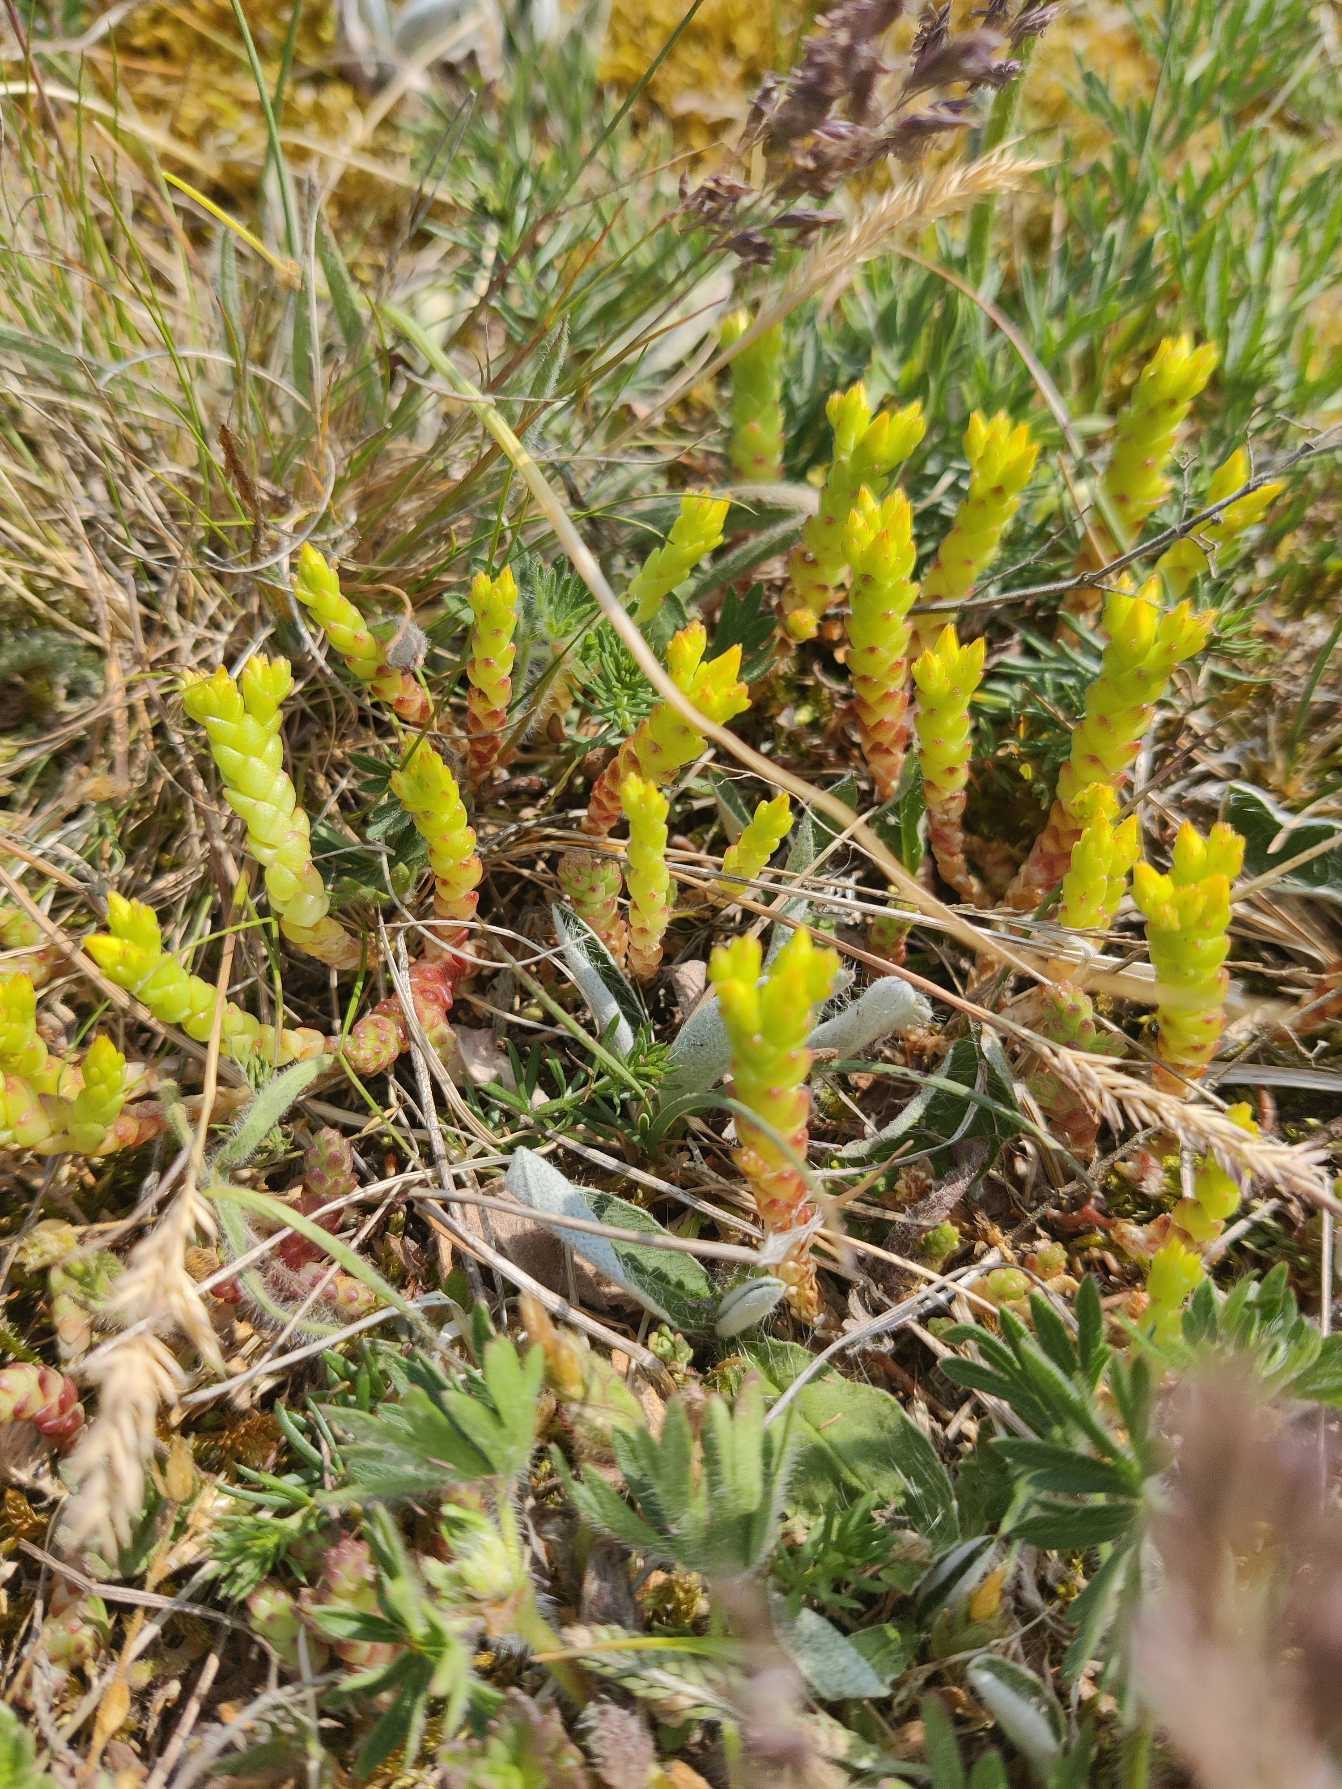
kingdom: Plantae
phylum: Tracheophyta
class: Magnoliopsida
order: Saxifragales
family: Crassulaceae
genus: Sedum
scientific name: Sedum acre
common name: Bidende stenurt
